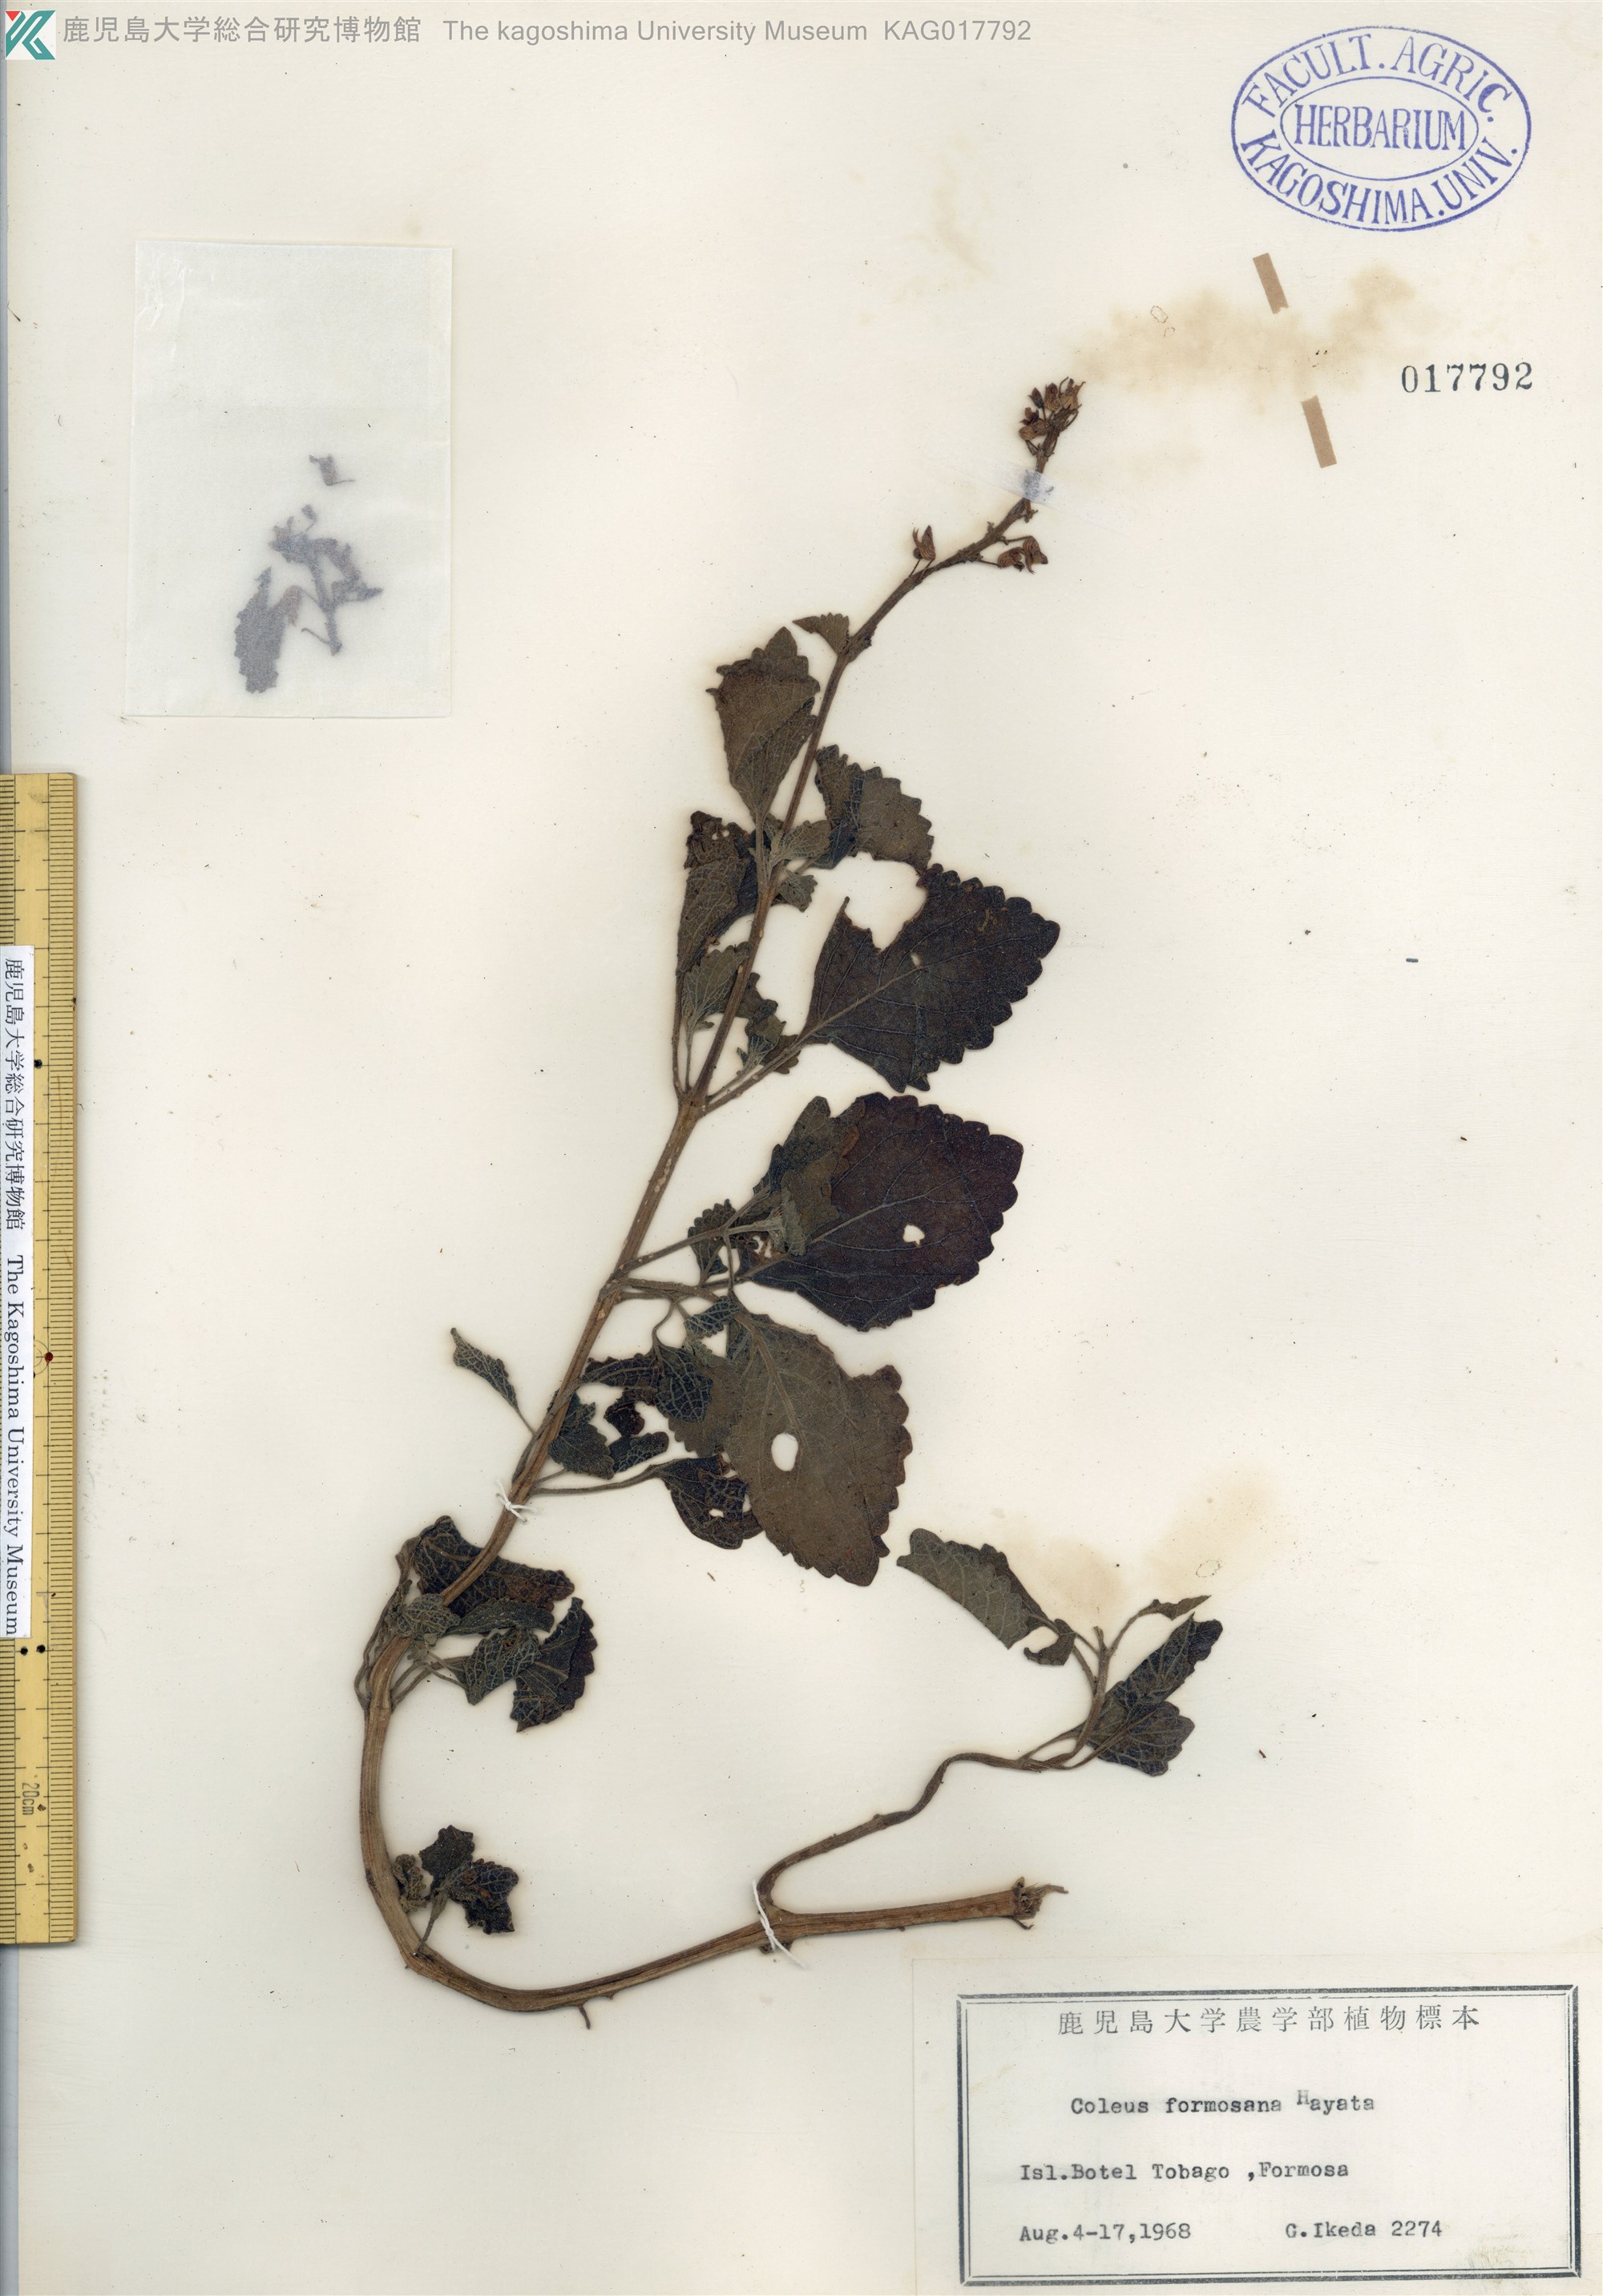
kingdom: Plantae
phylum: Tracheophyta
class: Magnoliopsida
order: Lamiales
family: Lamiaceae
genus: Coleus
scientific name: Coleus scutellarioides
